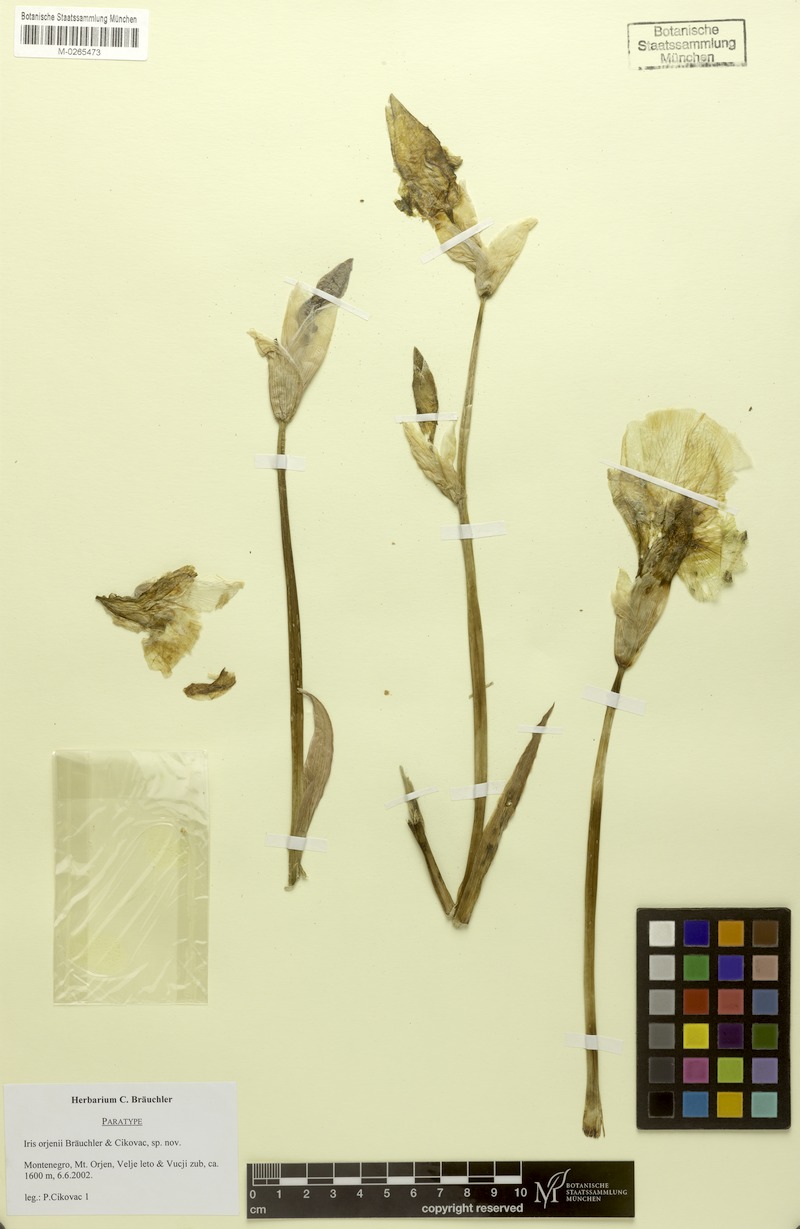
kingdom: Plantae
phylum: Tracheophyta
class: Liliopsida
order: Asparagales
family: Iridaceae
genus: Iris
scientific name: Iris orjenii
